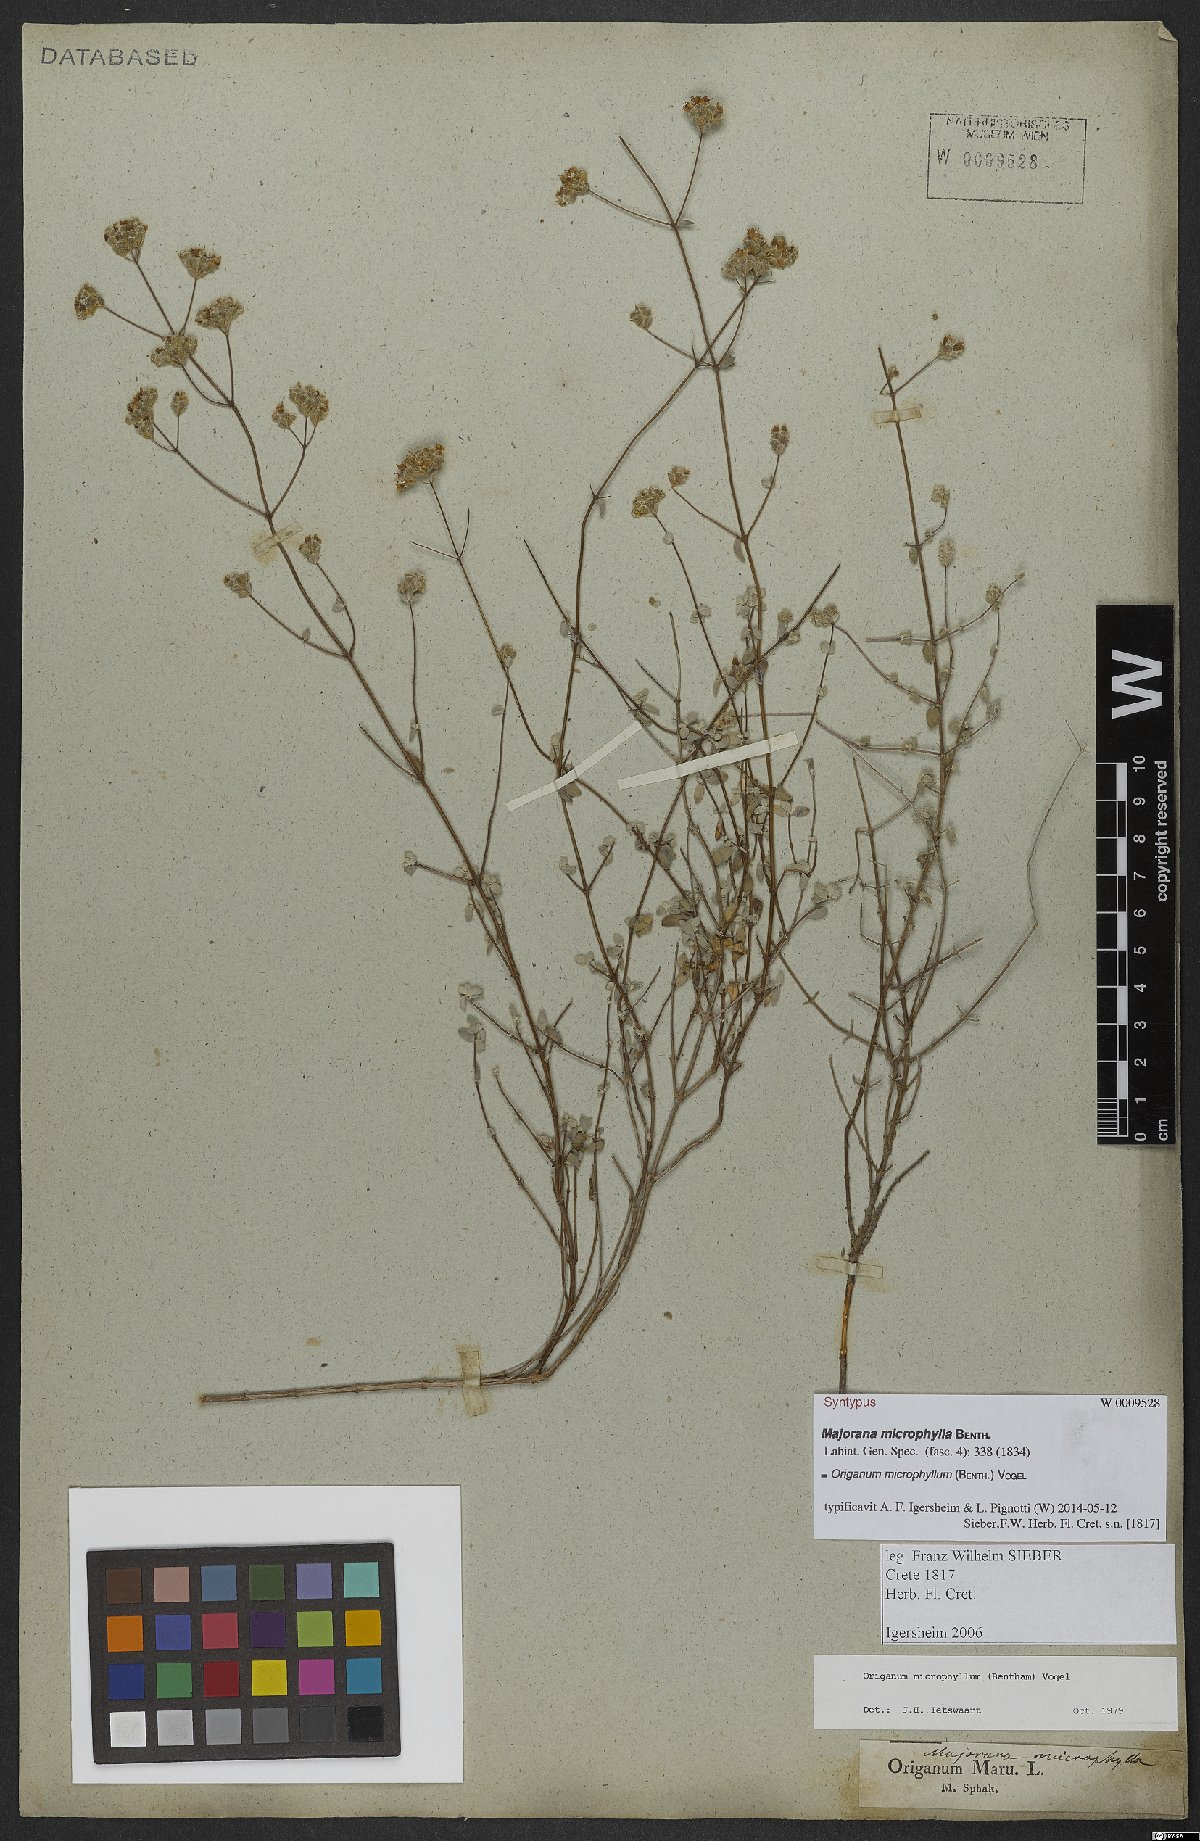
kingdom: Plantae
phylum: Tracheophyta
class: Magnoliopsida
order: Lamiales
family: Lamiaceae
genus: Origanum
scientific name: Origanum microphyllum
